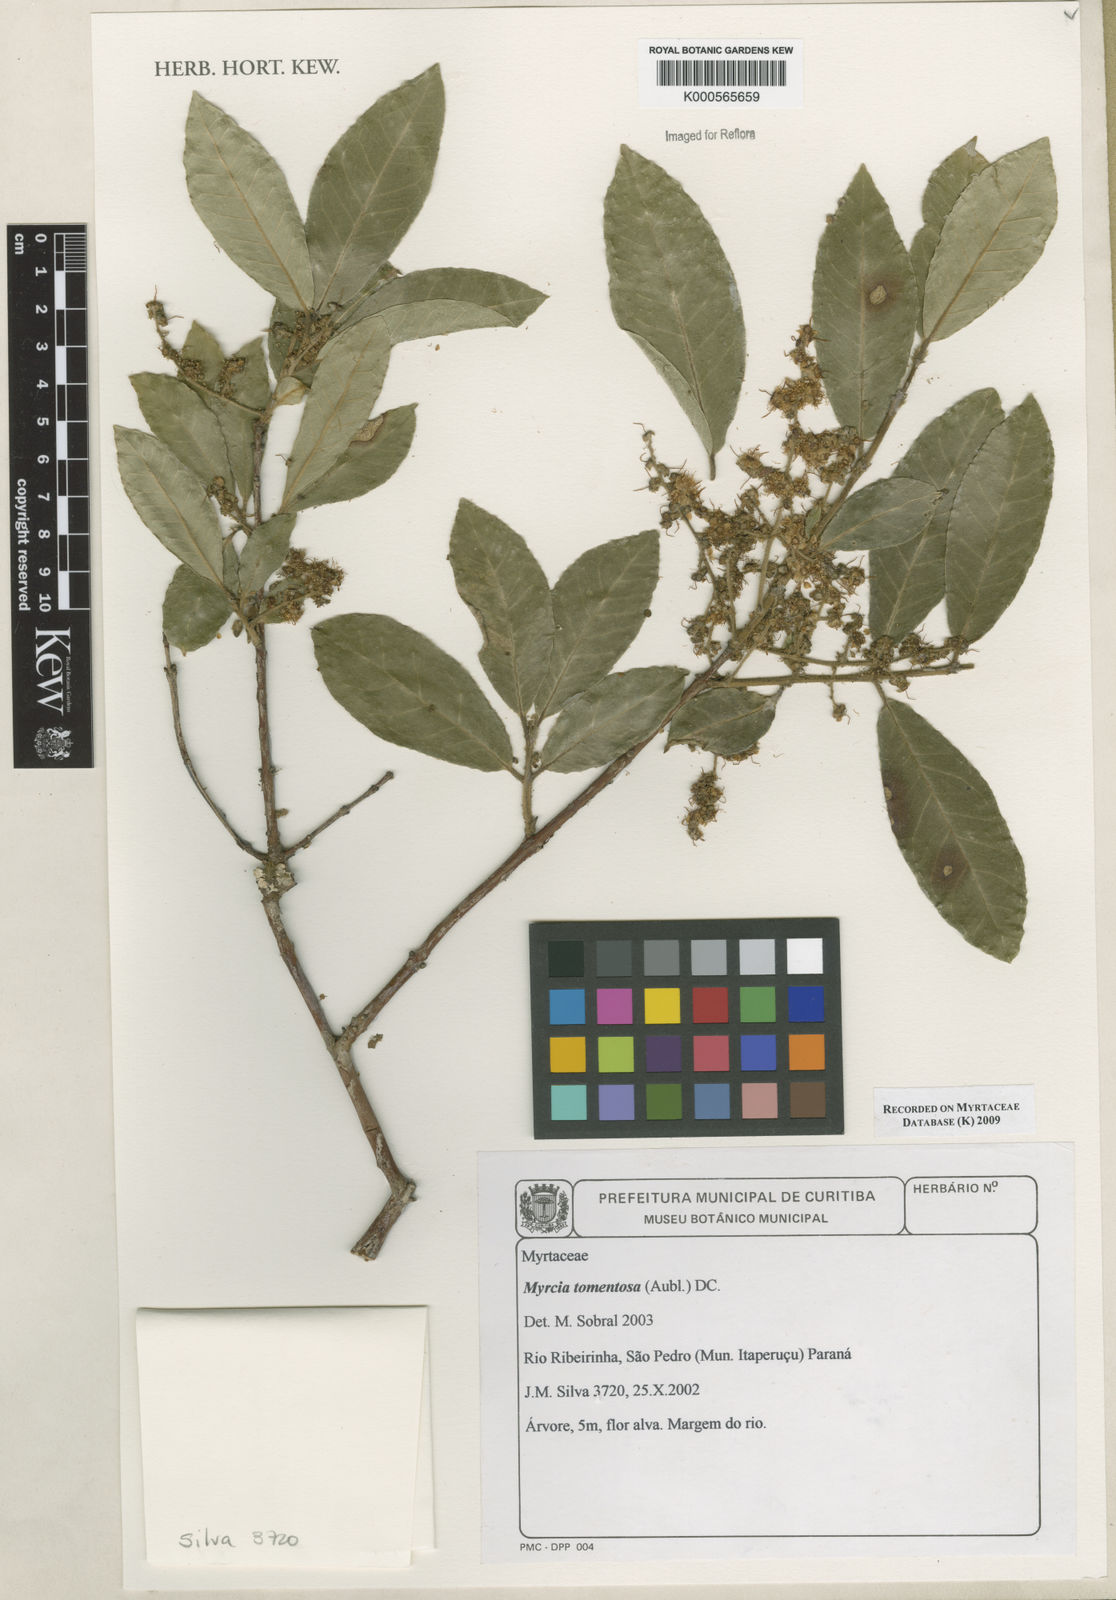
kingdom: Plantae
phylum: Tracheophyta
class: Magnoliopsida
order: Myrtales
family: Myrtaceae
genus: Myrcia
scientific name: Myrcia tomentosa
